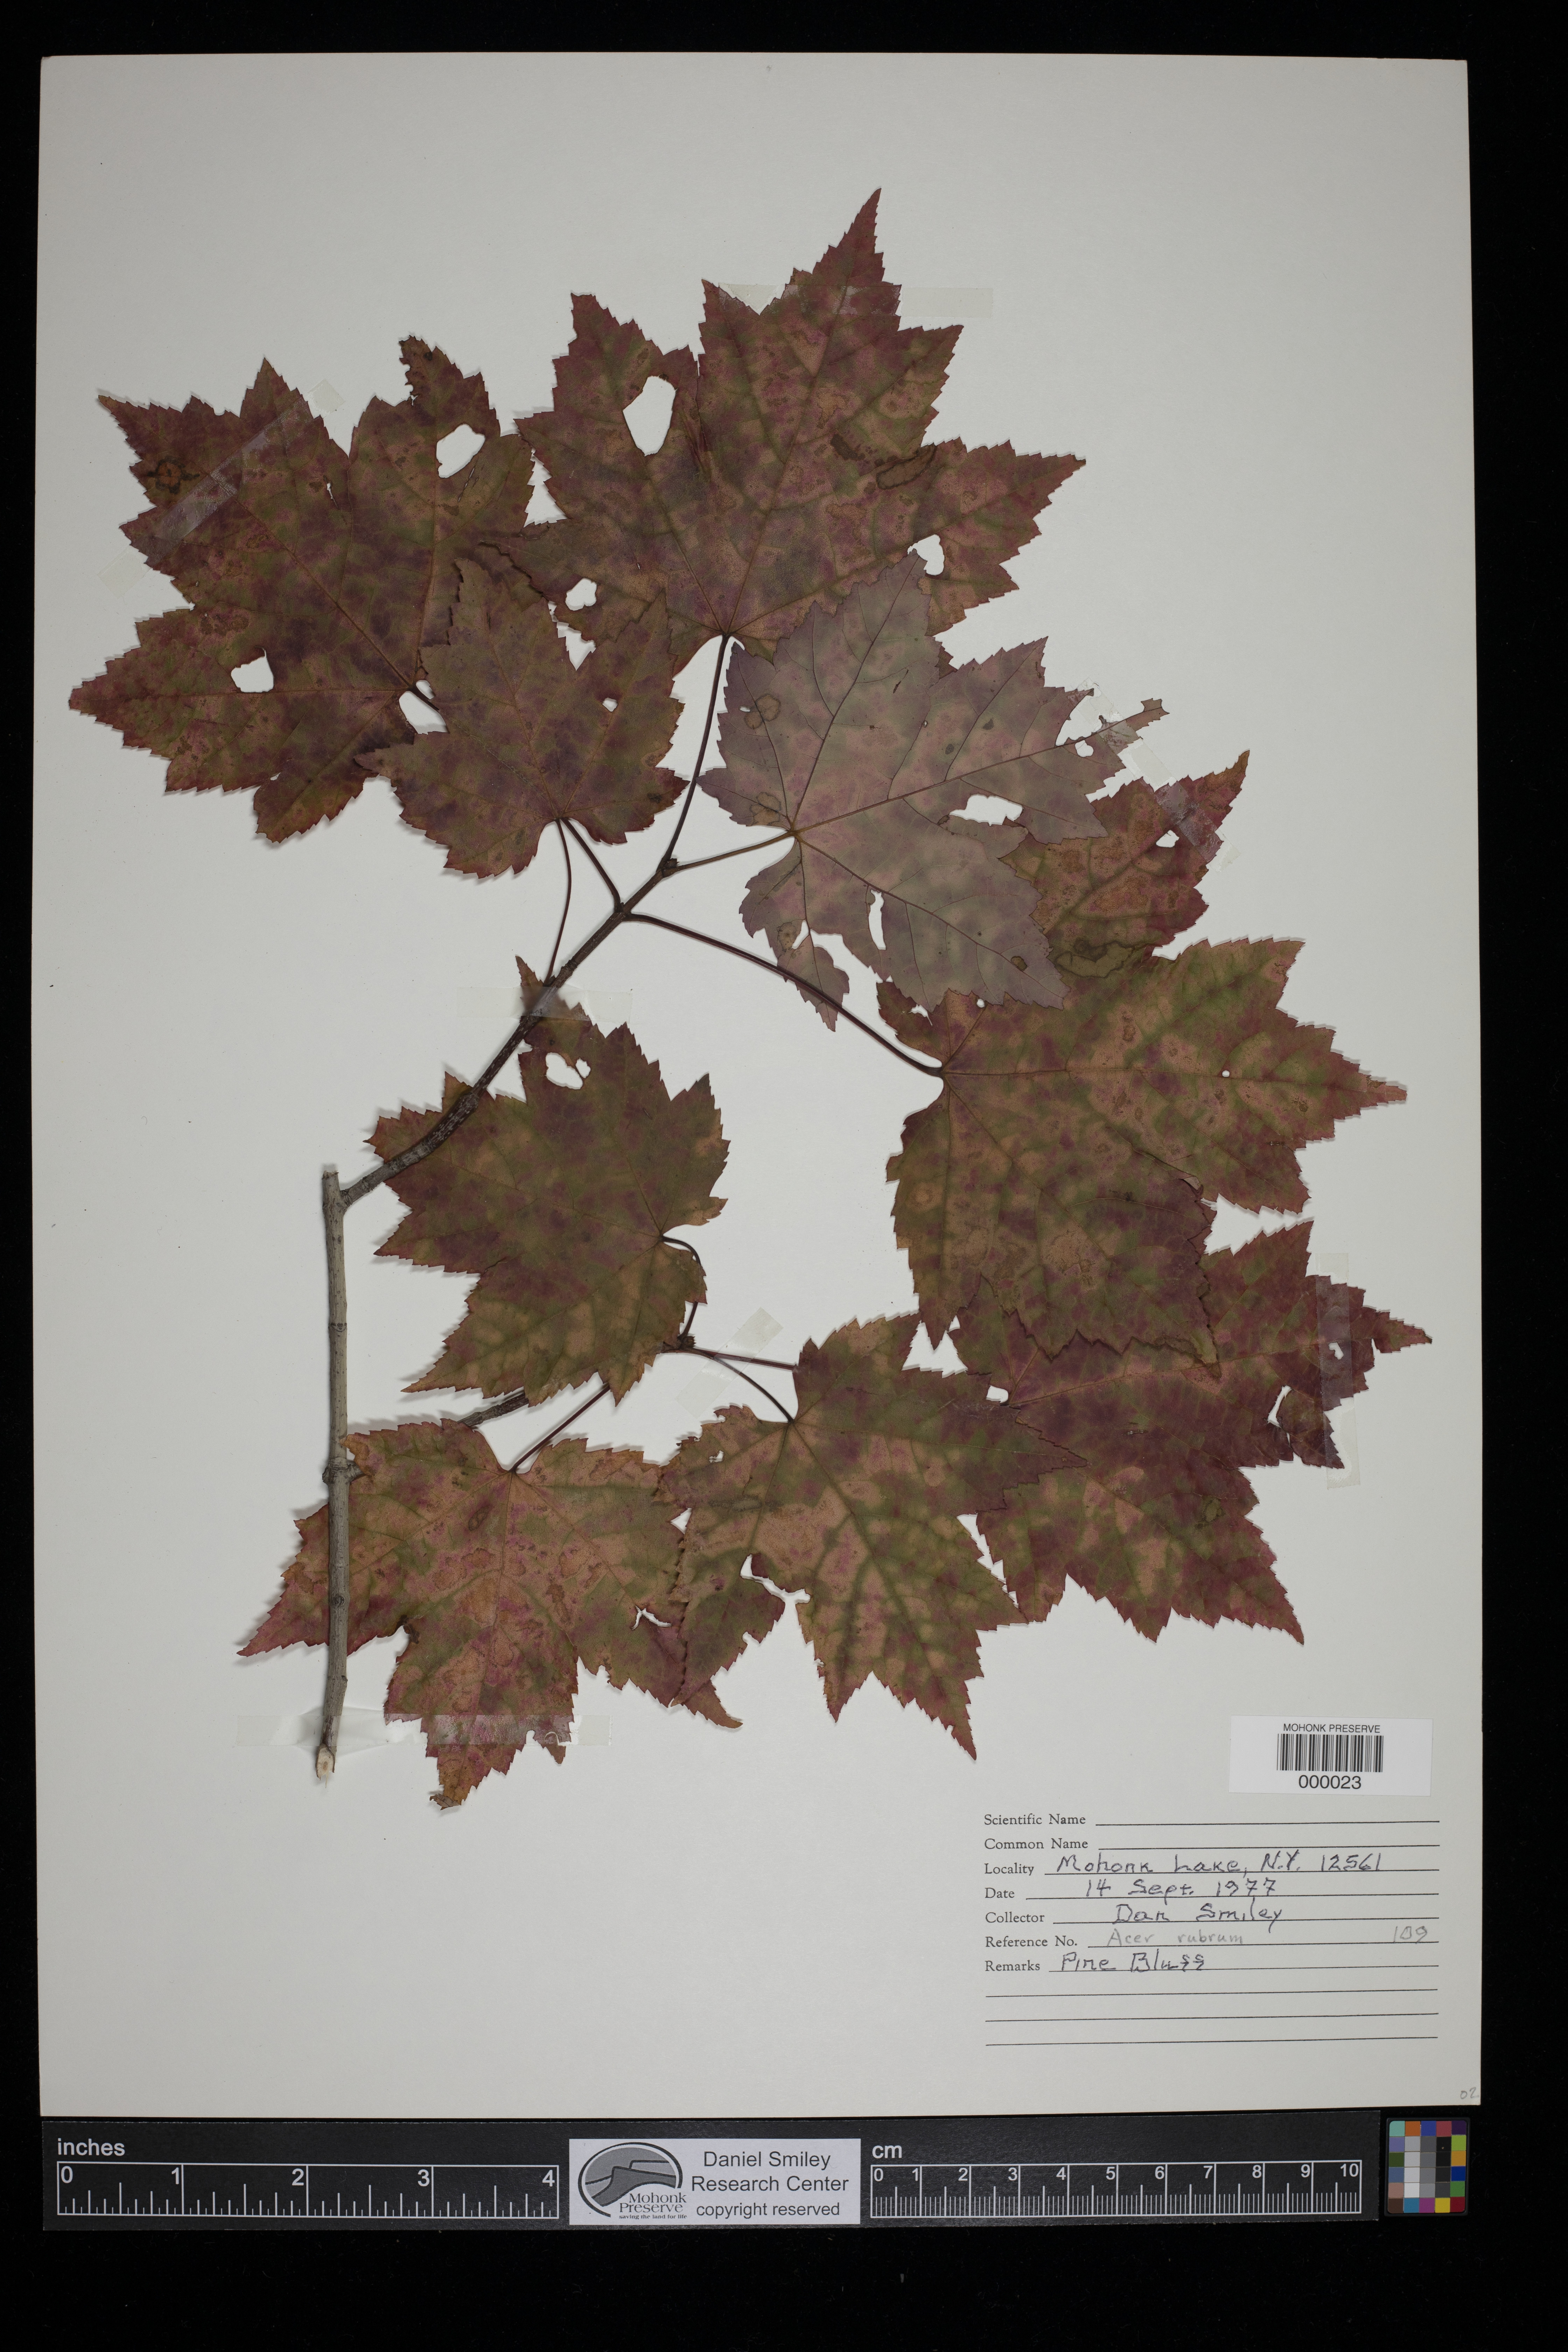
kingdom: Plantae
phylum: Tracheophyta
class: Magnoliopsida
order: Sapindales
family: Sapindaceae
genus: Acer
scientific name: Acer rubrum
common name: Red maple
